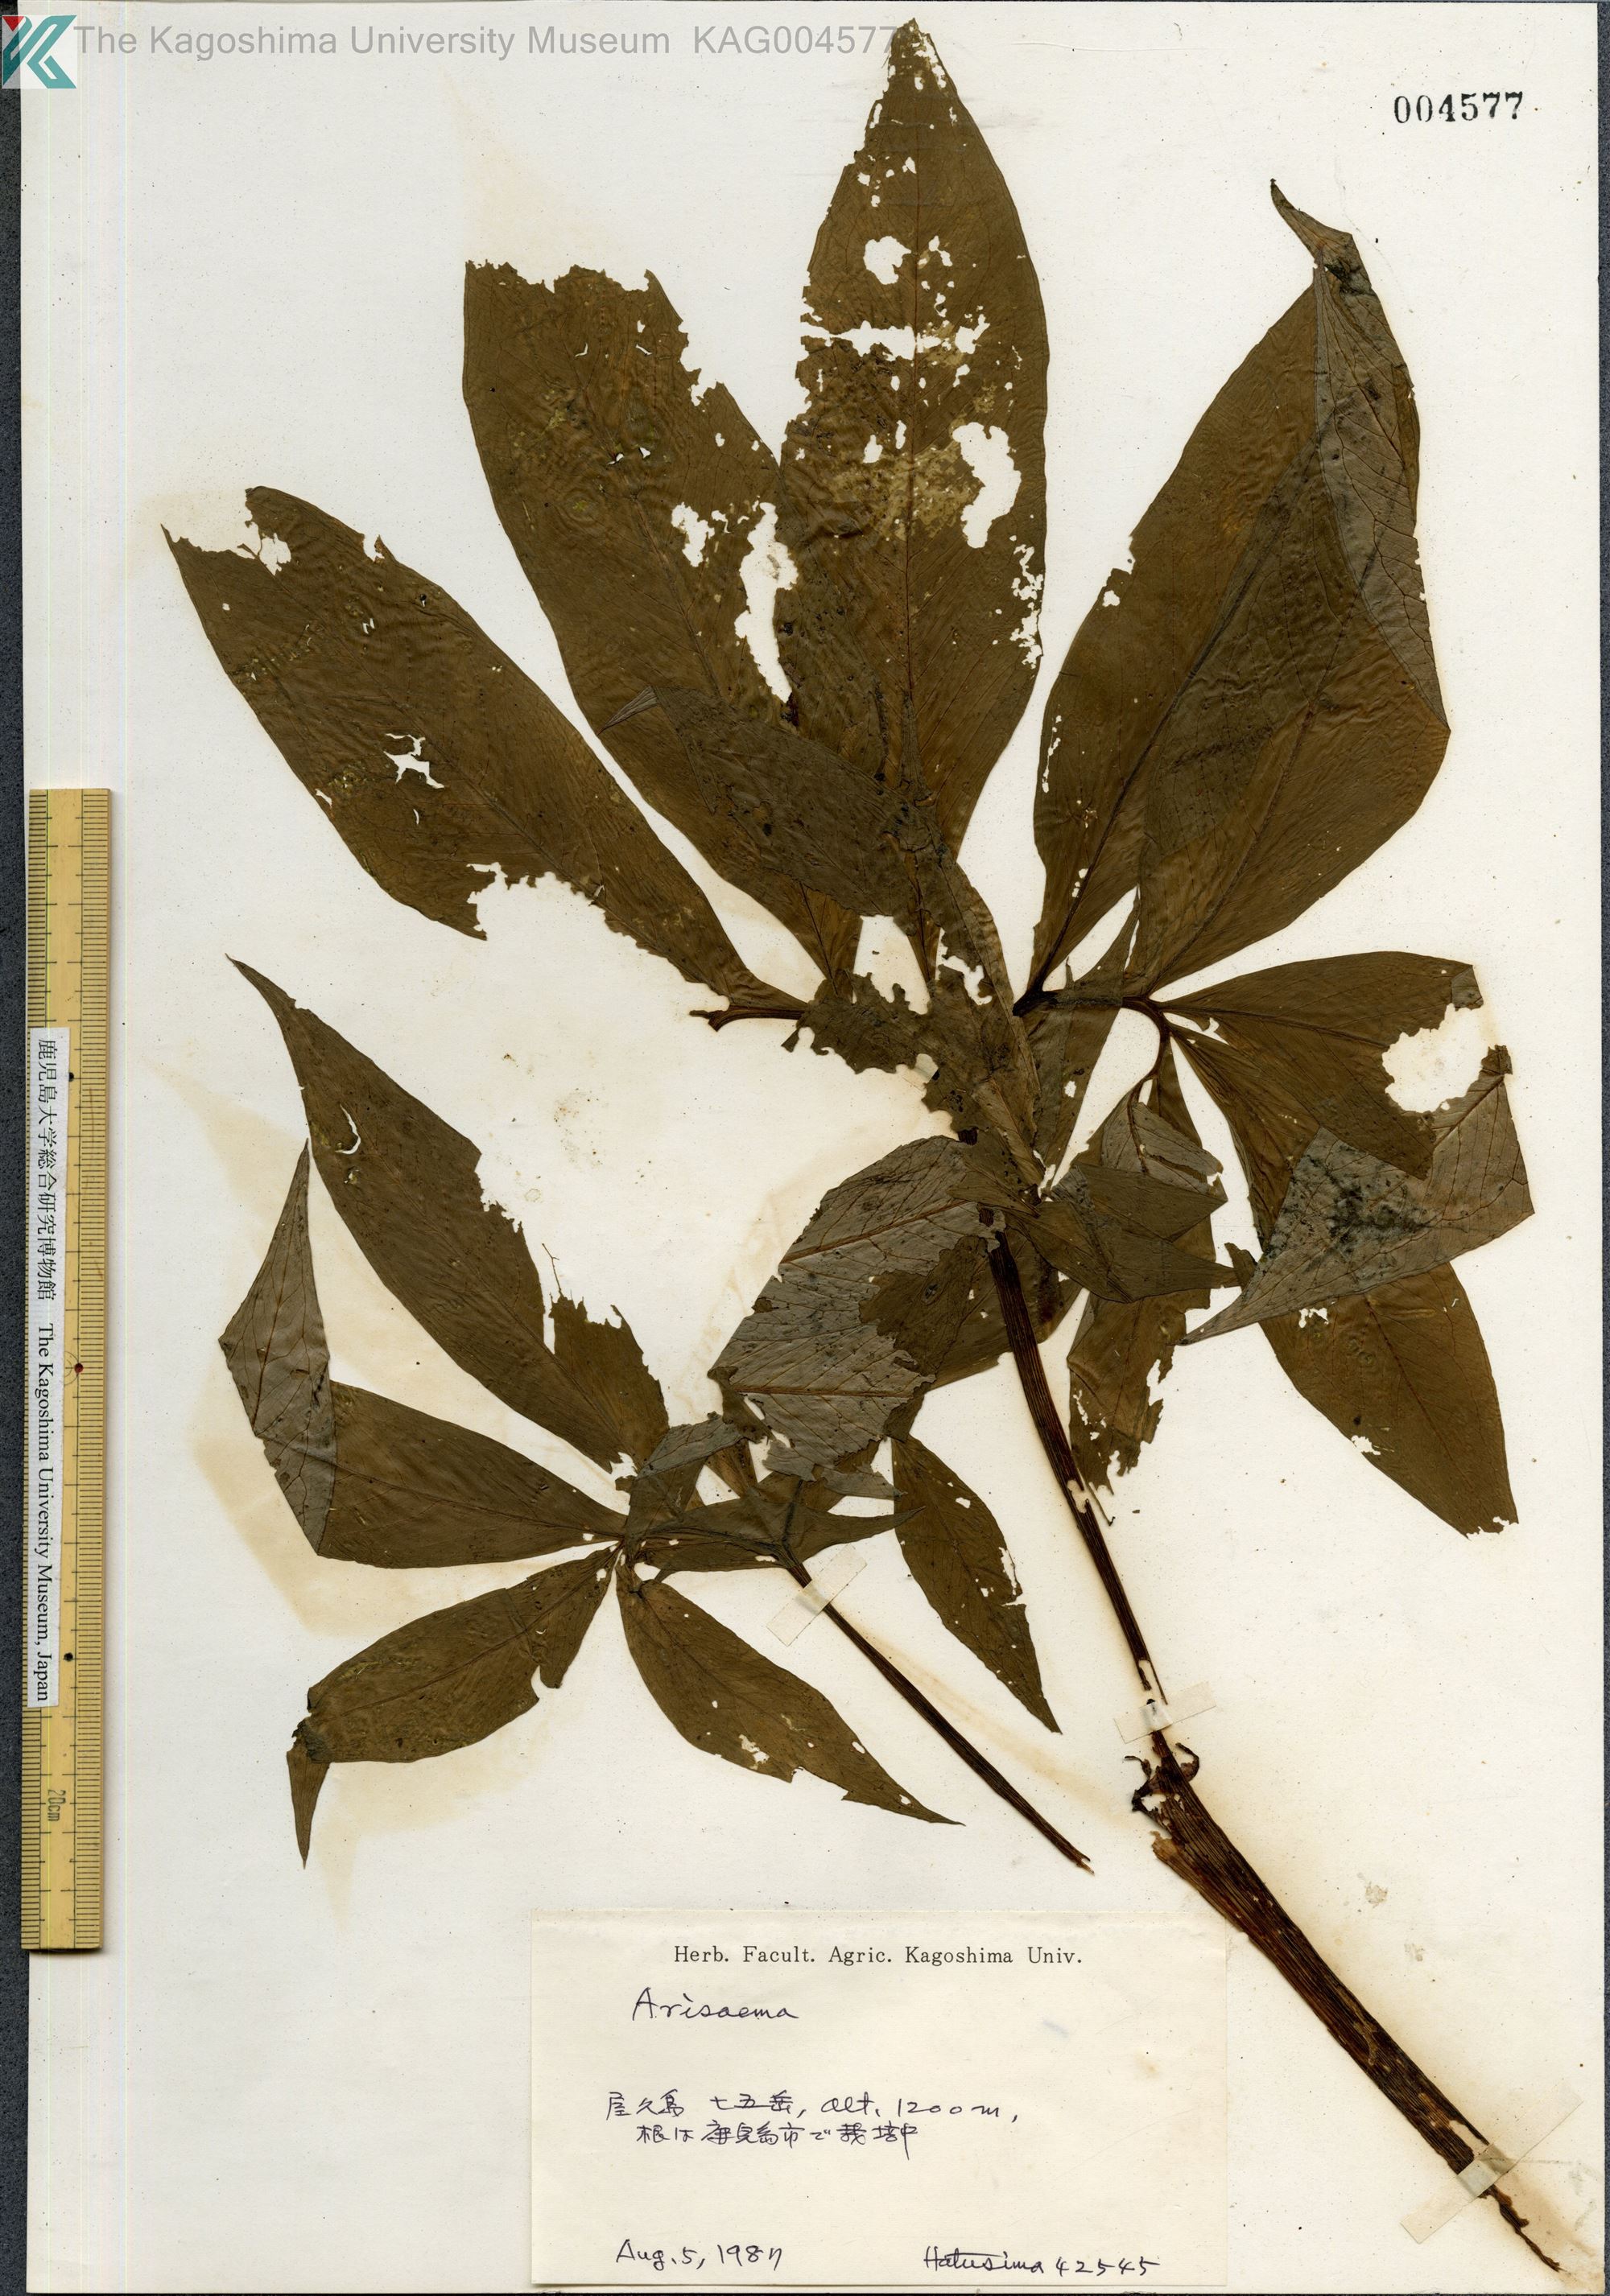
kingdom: Plantae
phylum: Tracheophyta
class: Liliopsida
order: Alismatales
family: Araceae
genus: Arisaema
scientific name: Arisaema
